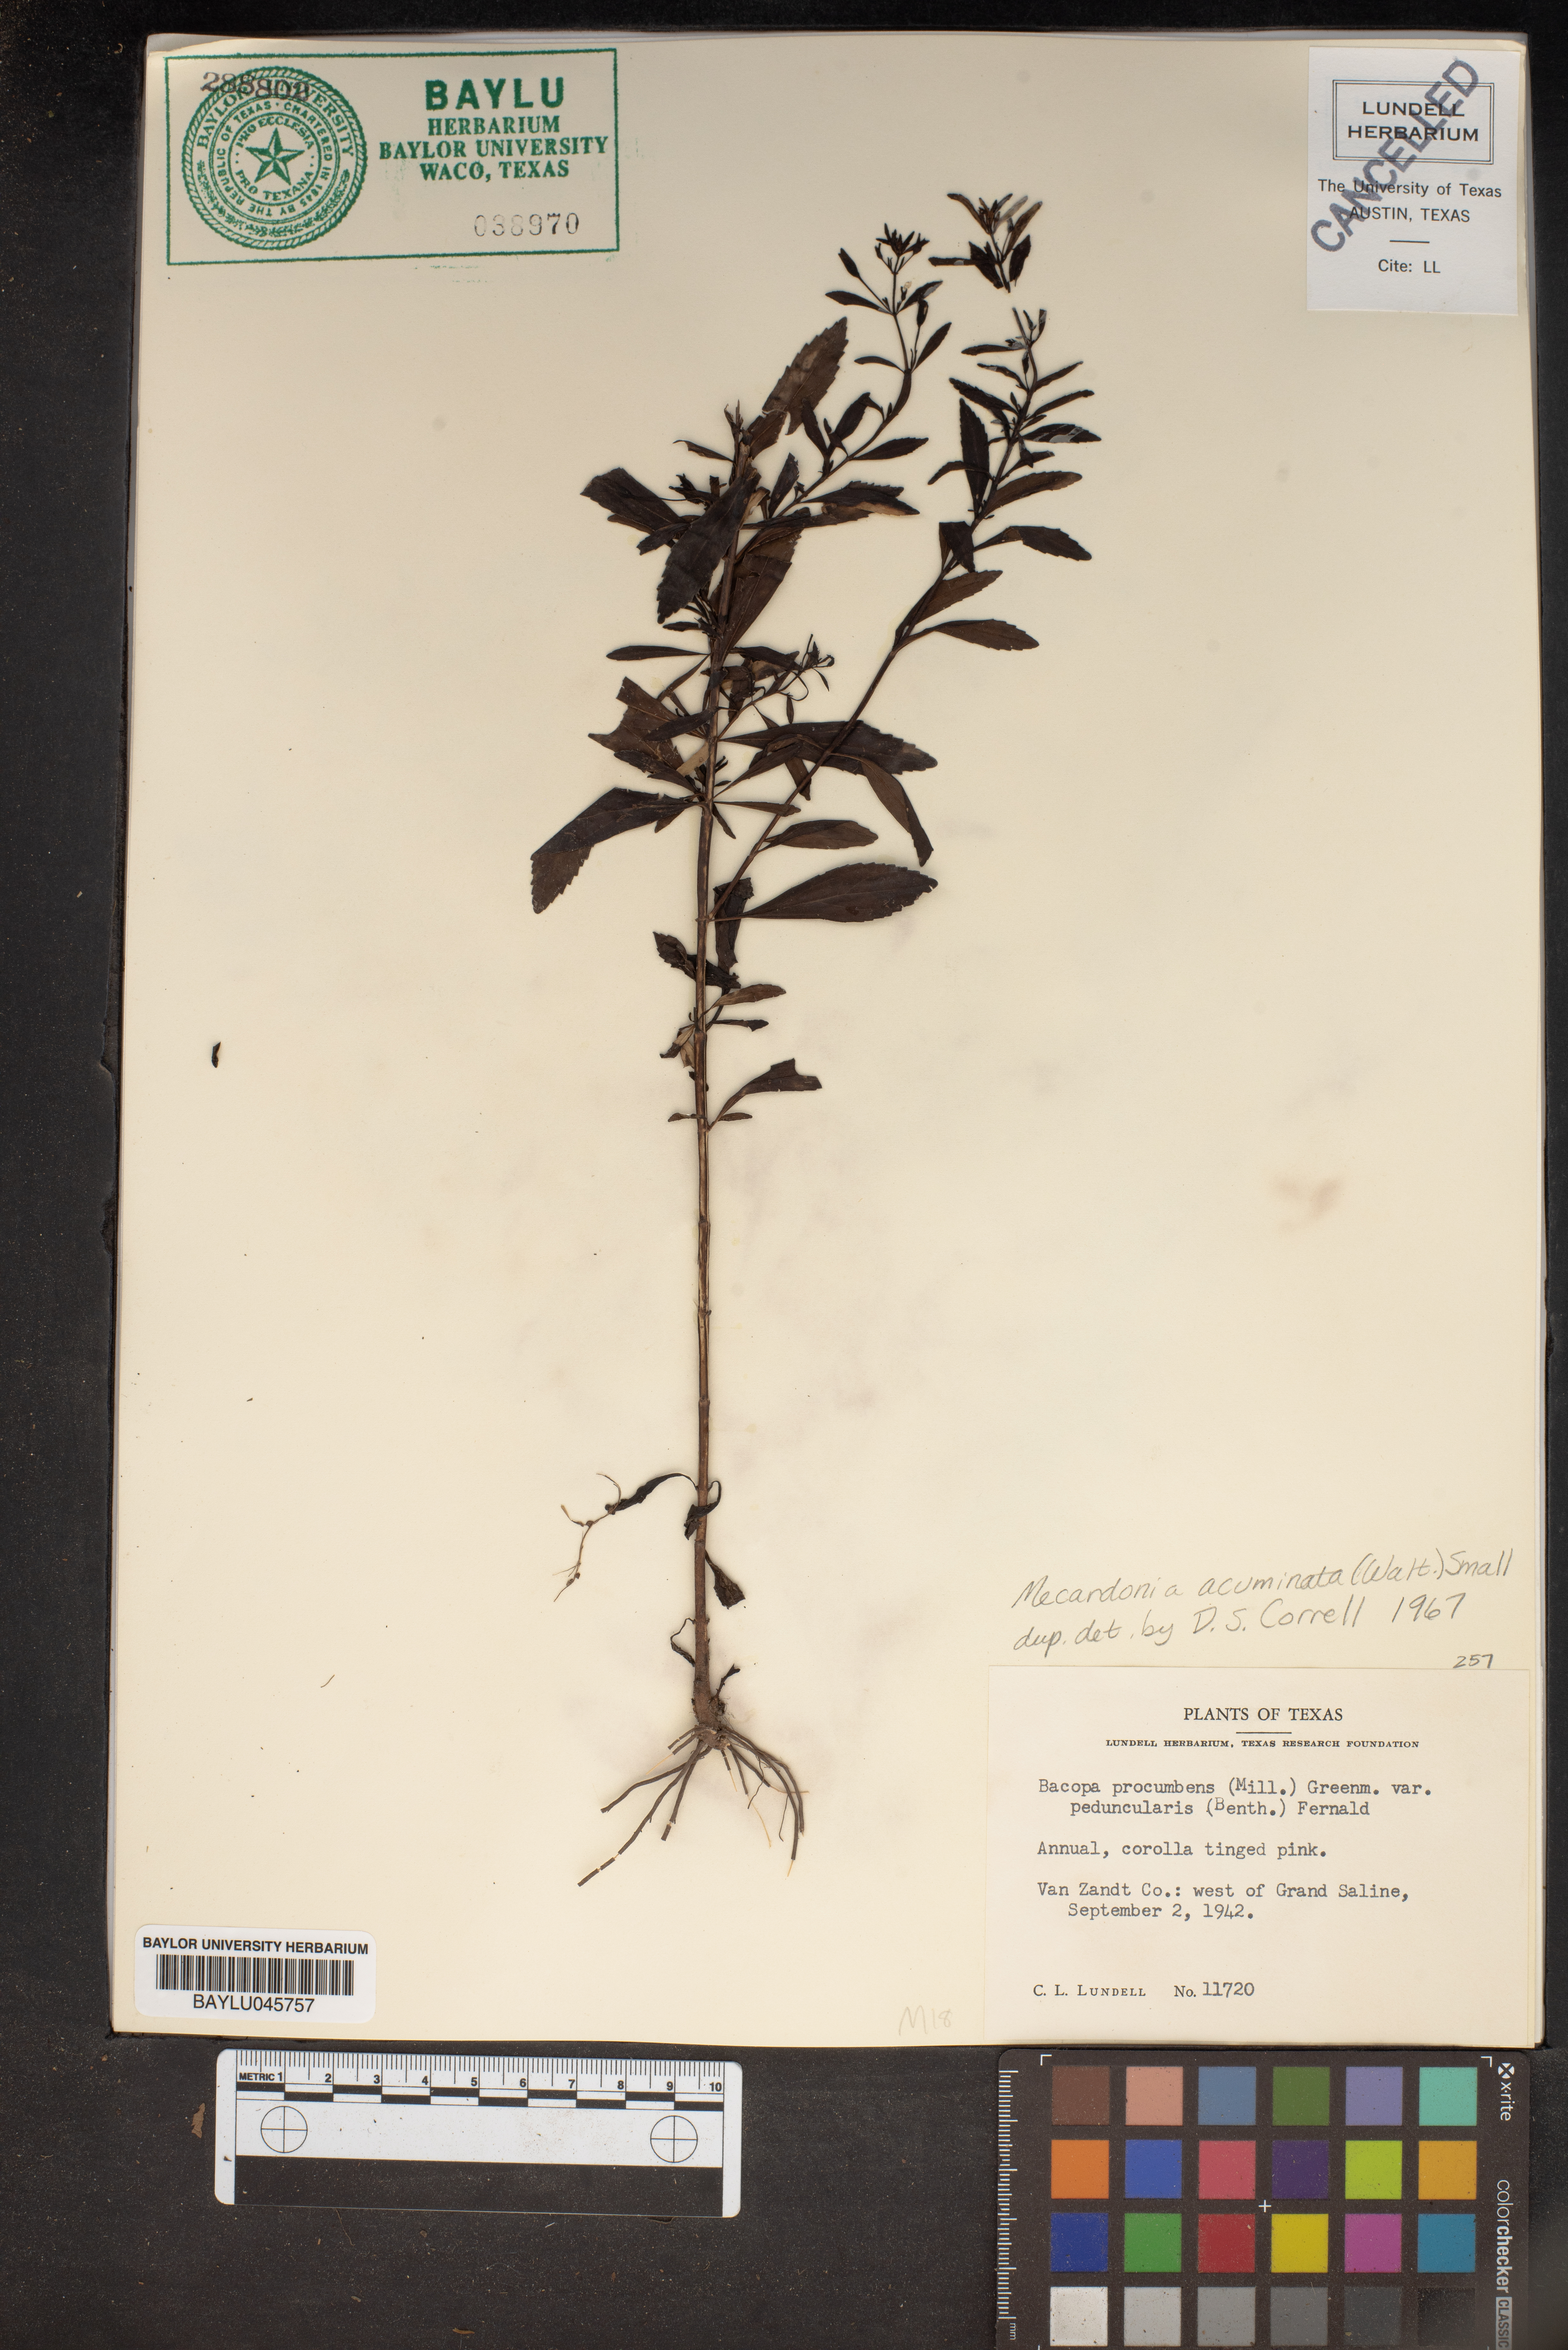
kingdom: Plantae
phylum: Tracheophyta
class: Magnoliopsida
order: Lamiales
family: Plantaginaceae
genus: Mecardonia
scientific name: Mecardonia acuminata
